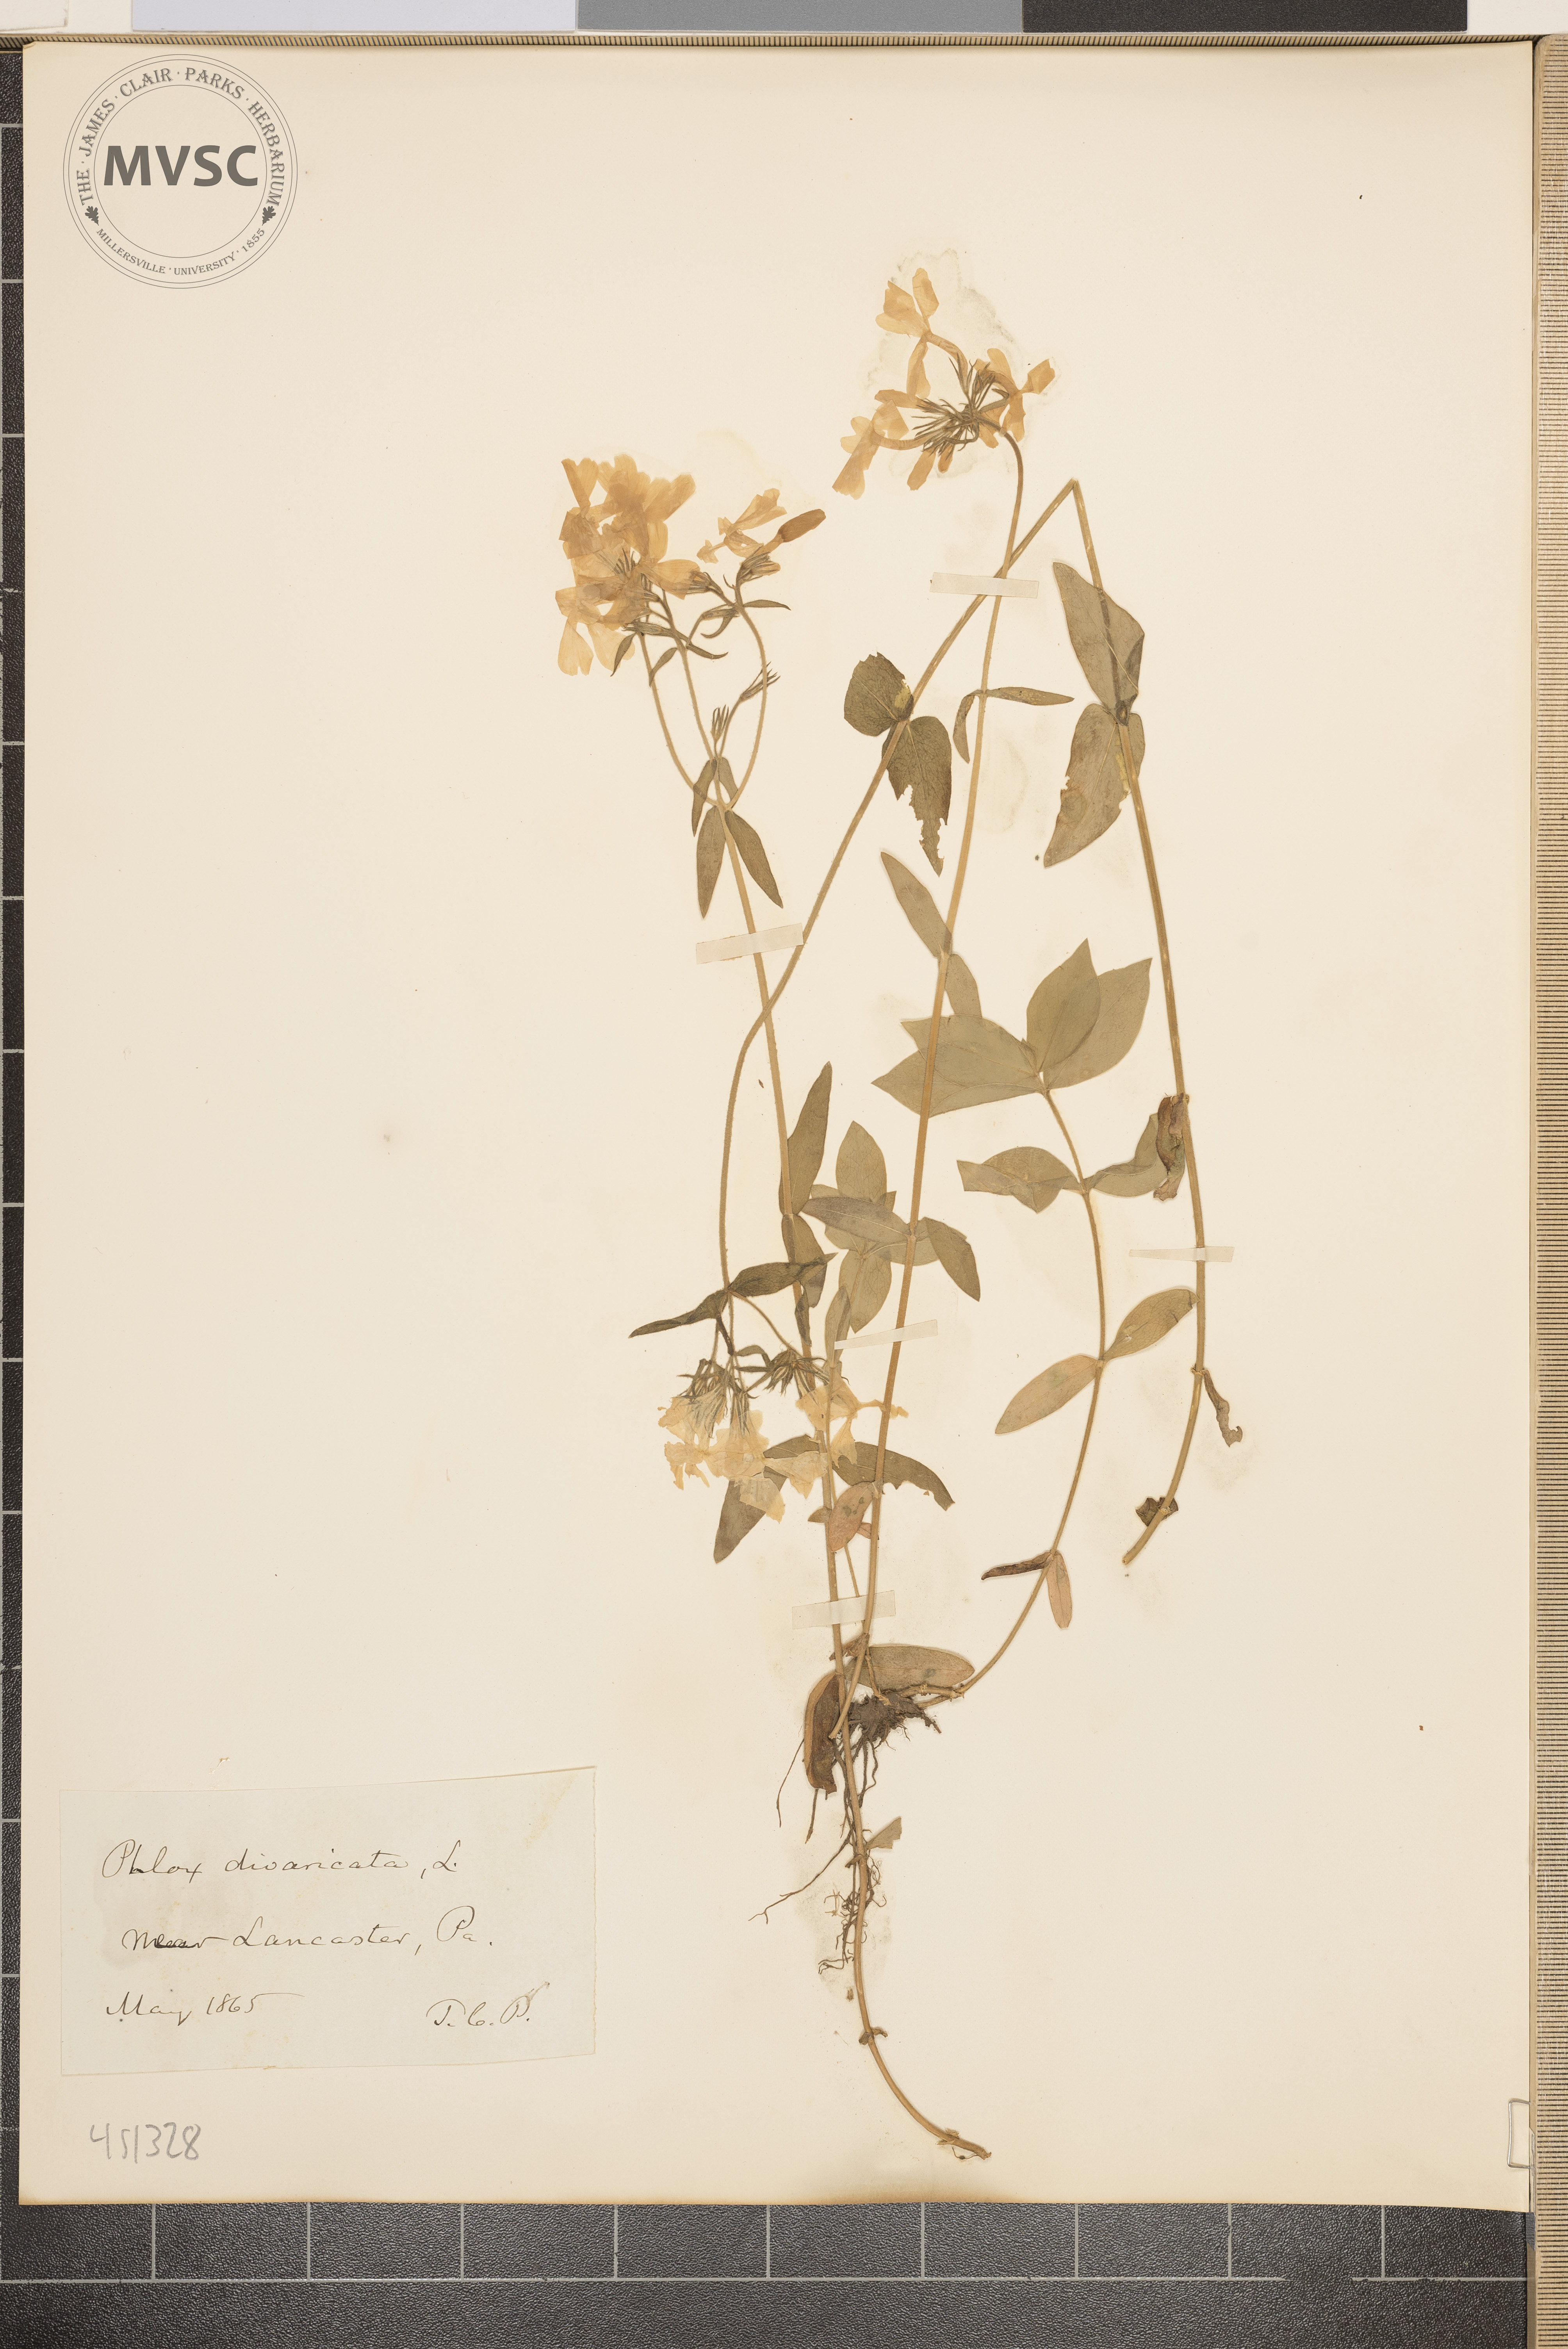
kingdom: Plantae
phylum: Tracheophyta
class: Magnoliopsida
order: Ericales
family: Polemoniaceae
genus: Phlox
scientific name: Phlox divaricata
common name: Blue phlox
